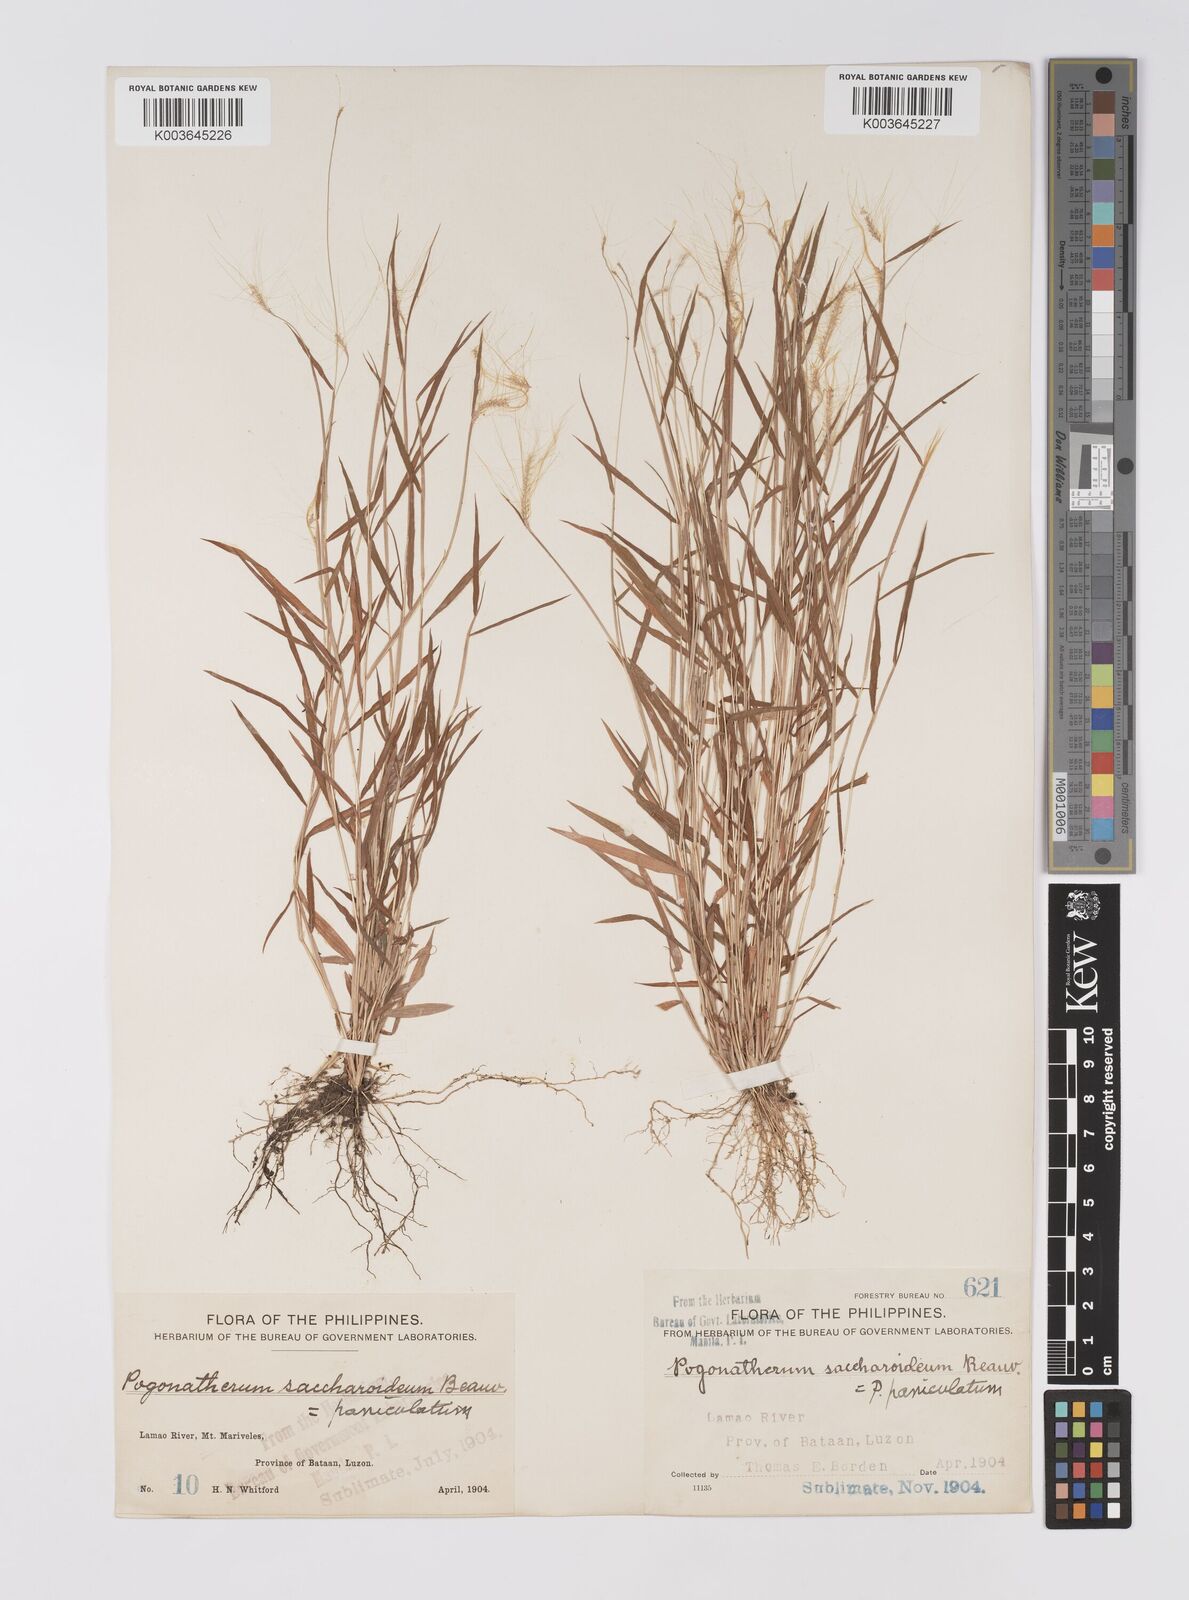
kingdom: Plantae
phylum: Tracheophyta
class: Liliopsida
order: Poales
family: Poaceae
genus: Pogonatherum
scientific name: Pogonatherum crinitum
